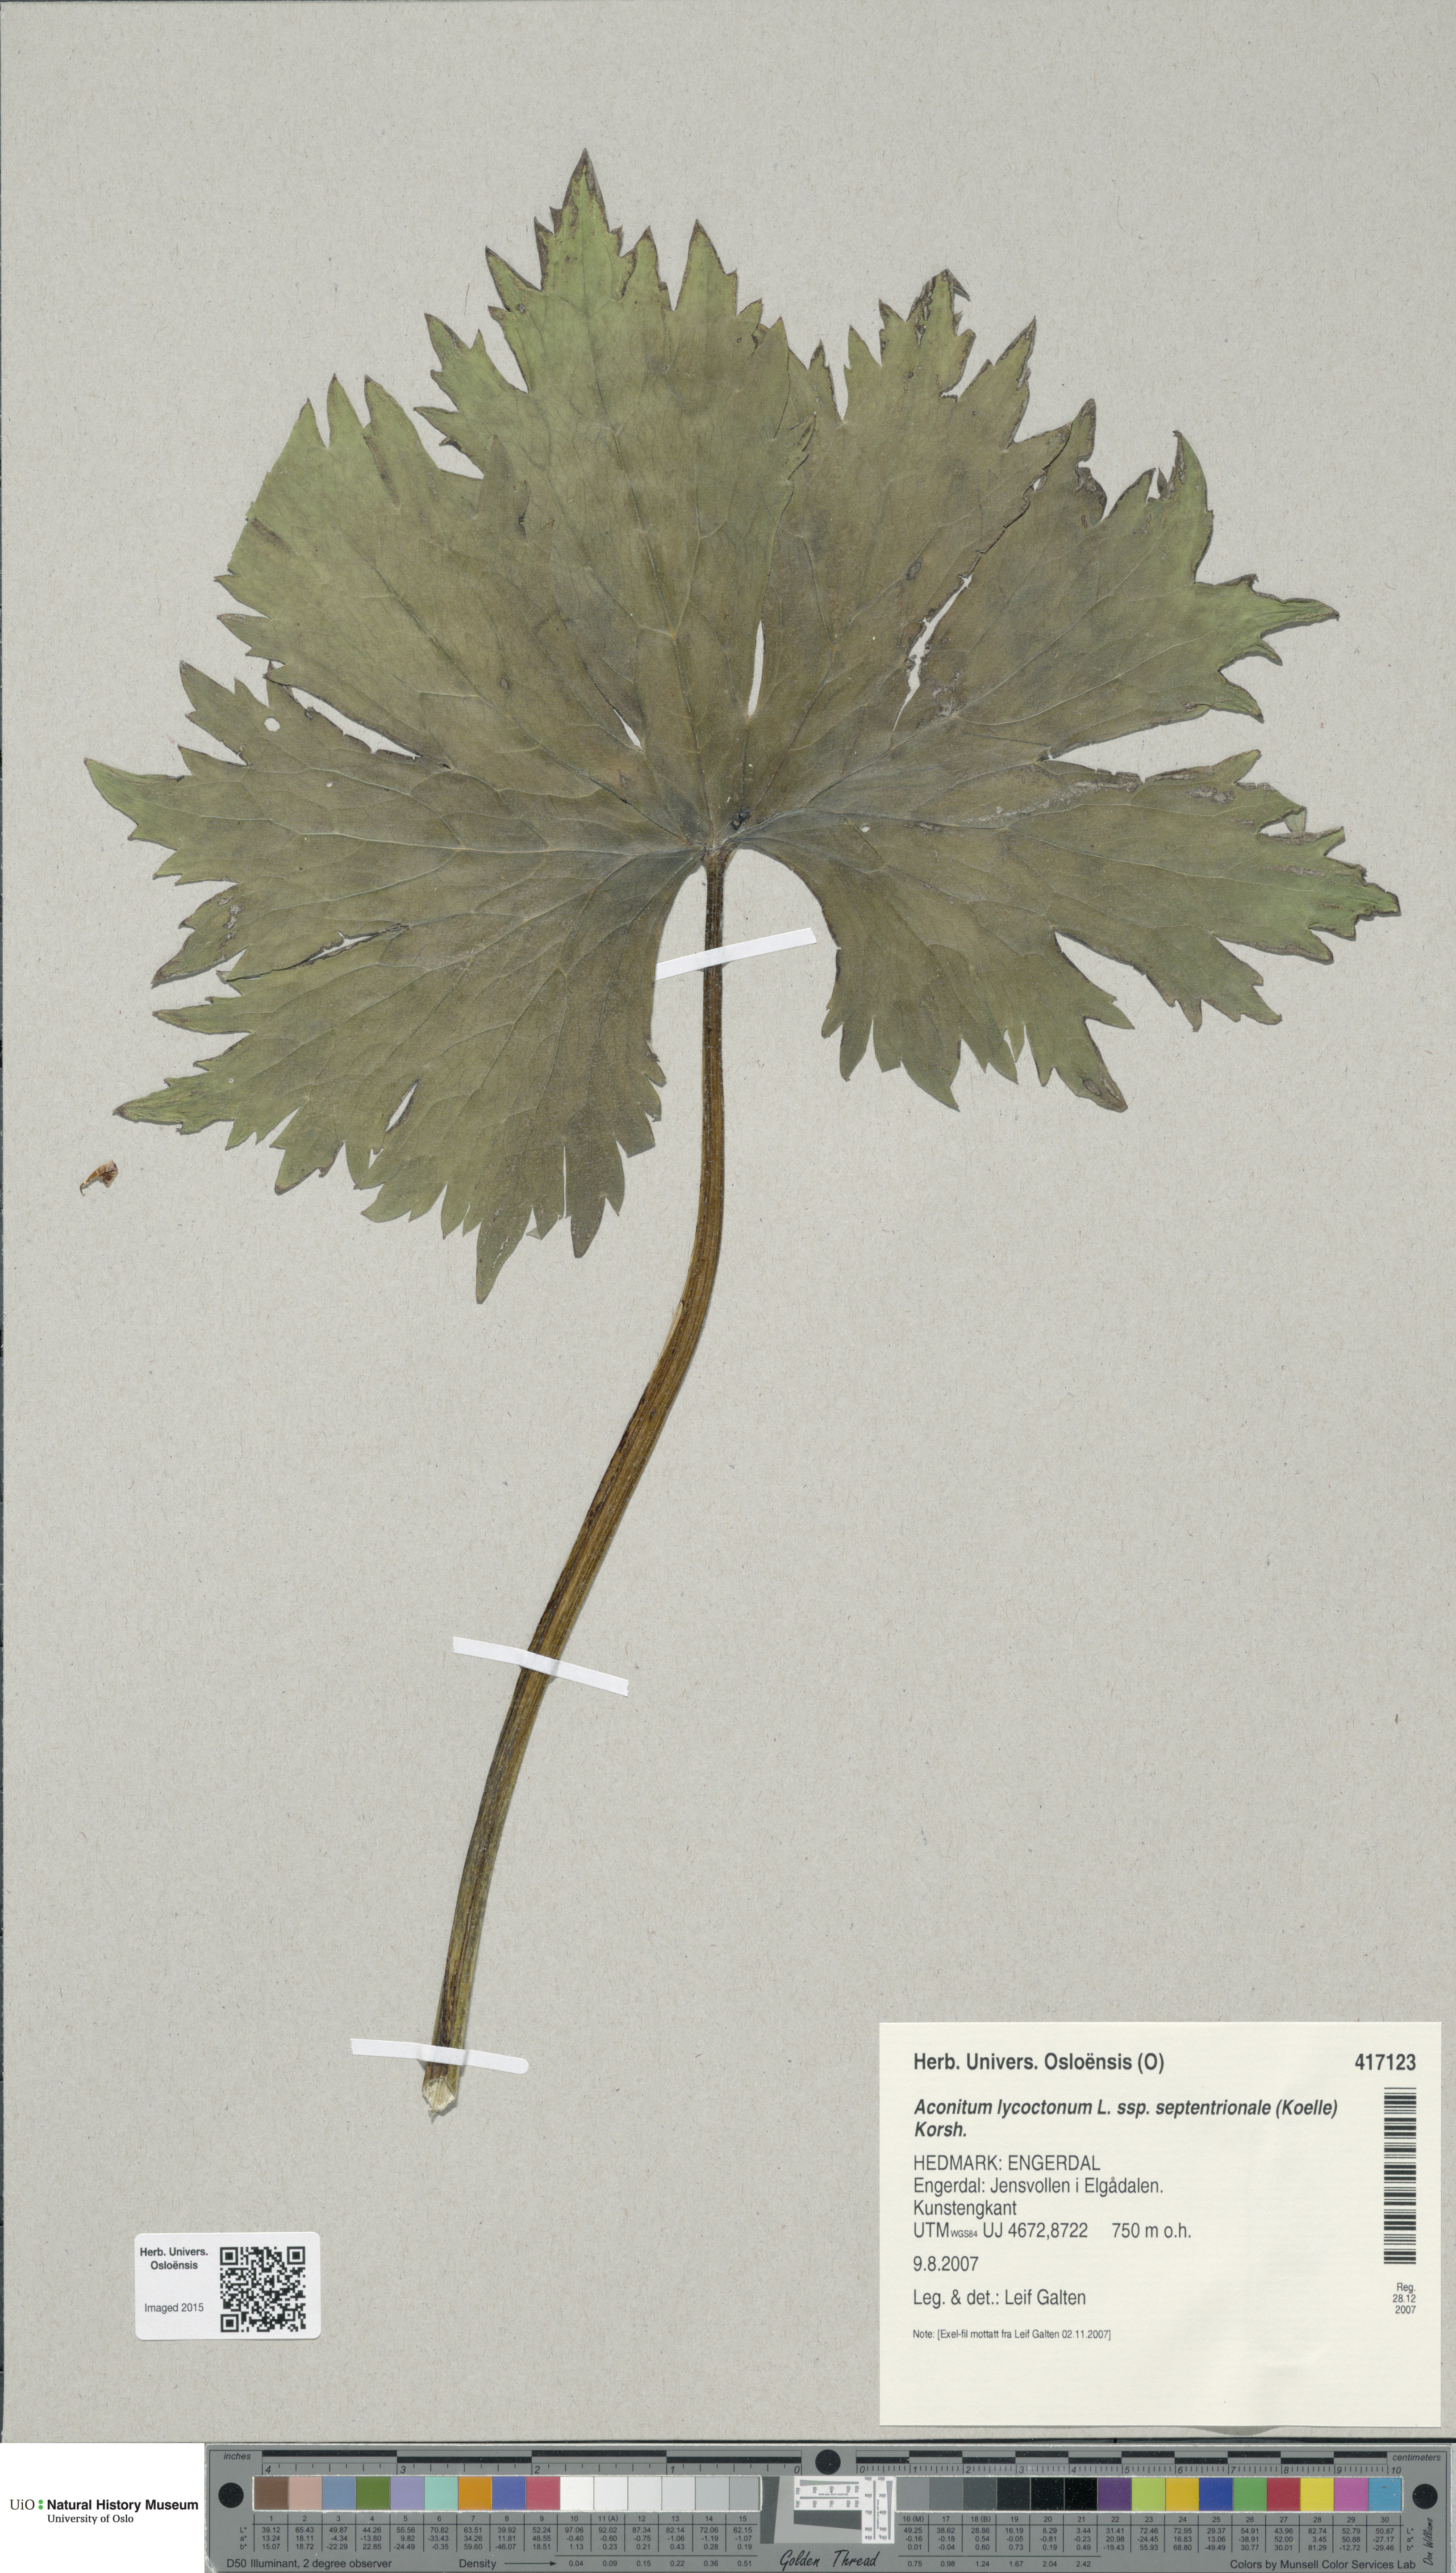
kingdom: Plantae
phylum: Tracheophyta
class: Magnoliopsida
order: Ranunculales
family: Ranunculaceae
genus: Aconitum
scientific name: Aconitum septentrionale
